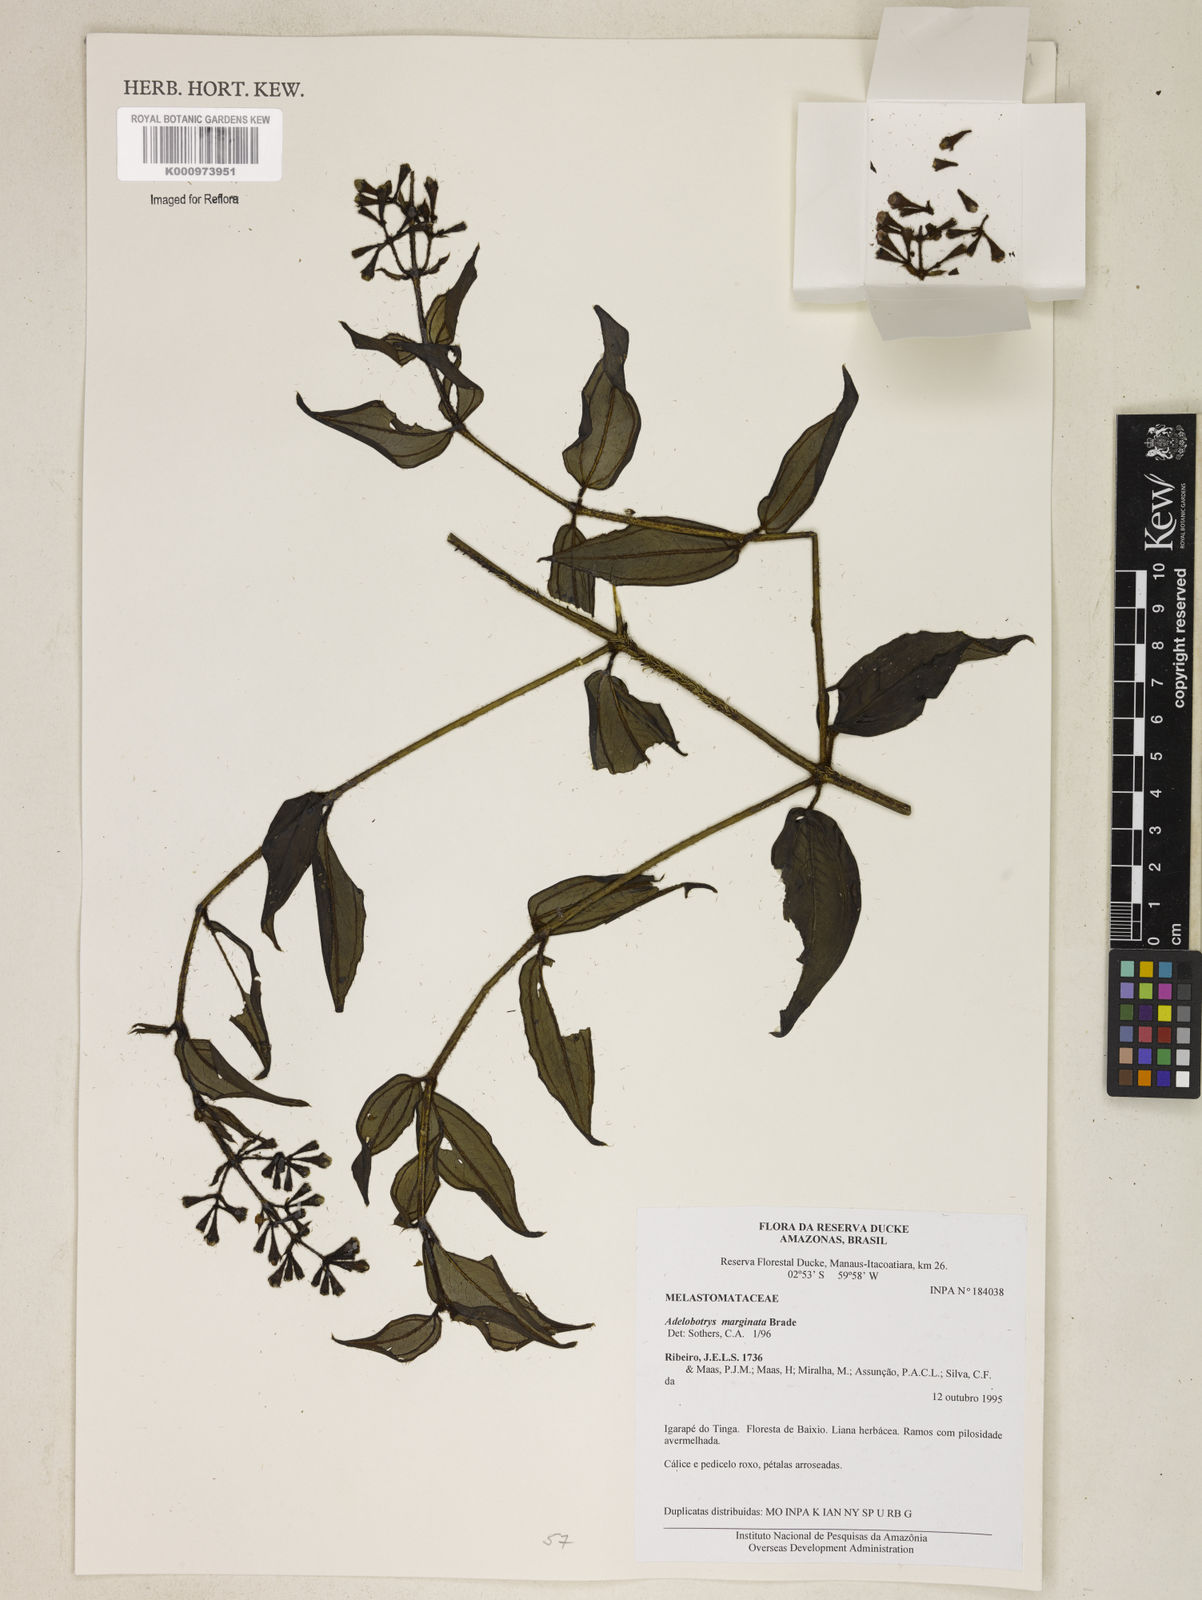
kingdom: Plantae
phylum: Tracheophyta
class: Magnoliopsida
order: Myrtales
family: Melastomataceae
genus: Adelobotrys
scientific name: Adelobotrys rachidotrichus
